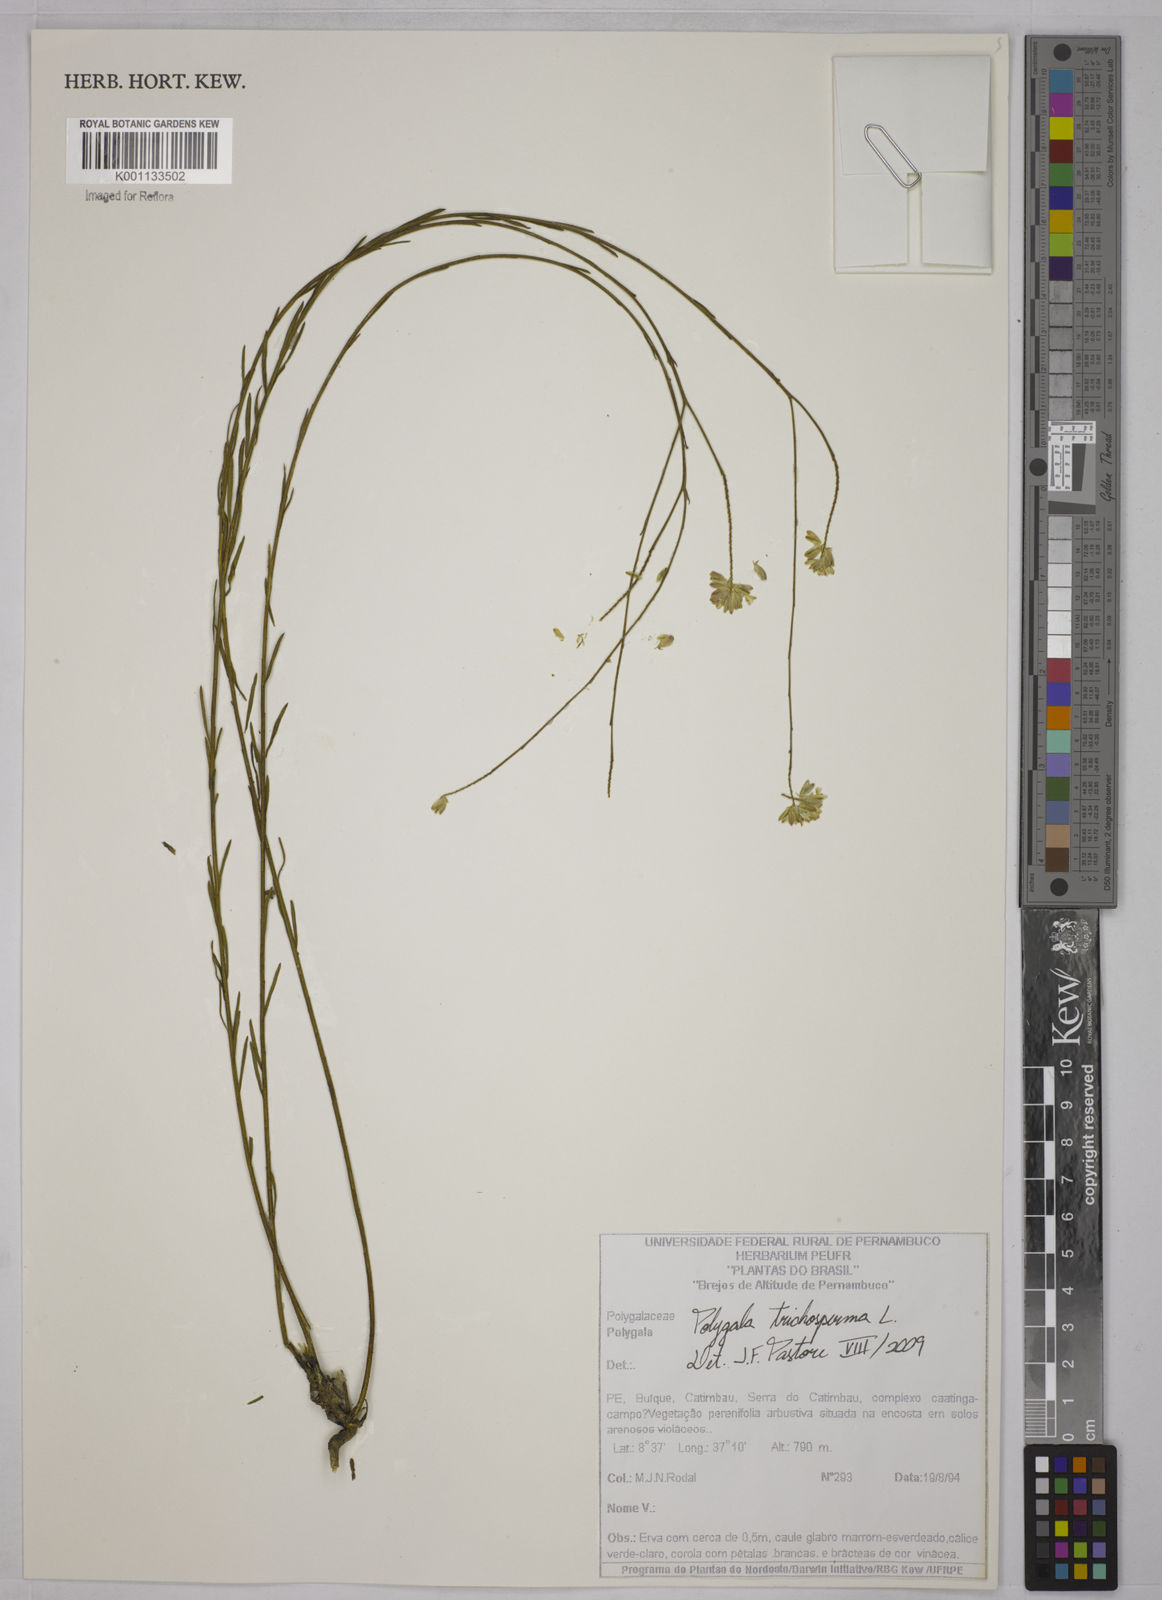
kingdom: Plantae
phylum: Tracheophyta
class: Magnoliopsida
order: Fabales
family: Polygalaceae
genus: Polygala
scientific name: Polygala trichosperma
